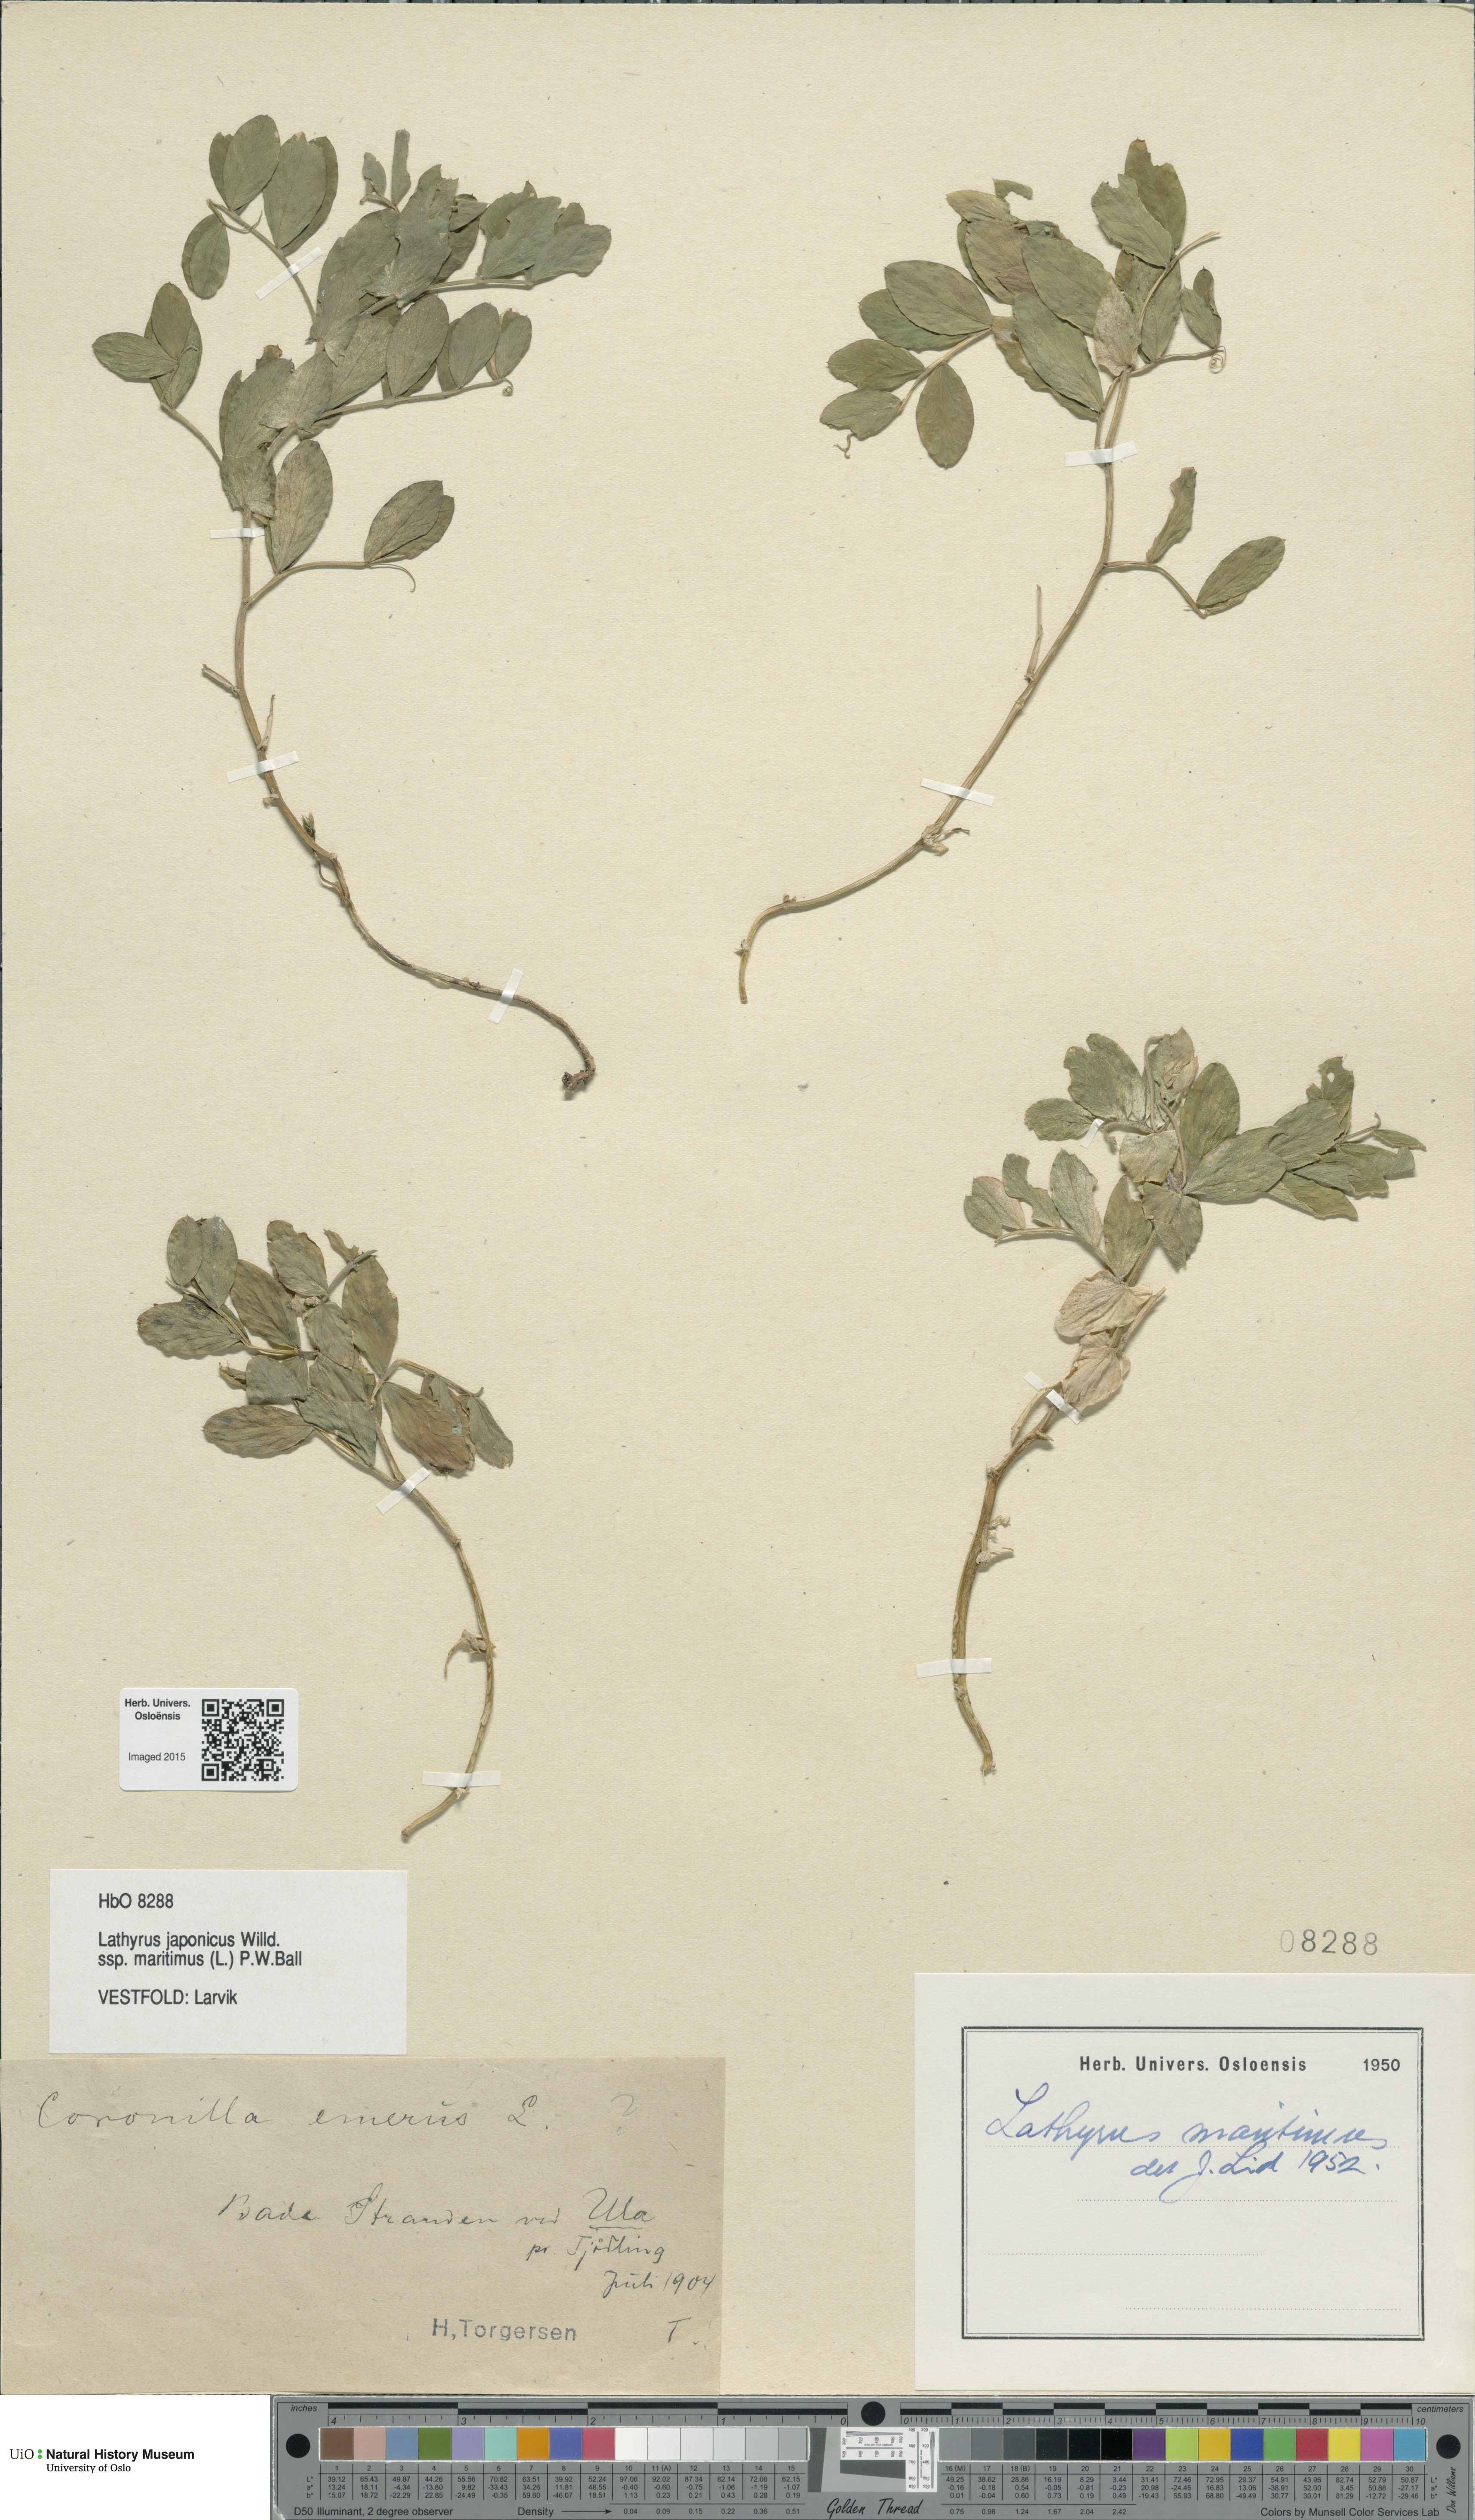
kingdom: Plantae
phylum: Tracheophyta
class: Magnoliopsida
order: Fabales
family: Fabaceae
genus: Lathyrus
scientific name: Lathyrus japonicus
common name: Sea pea
